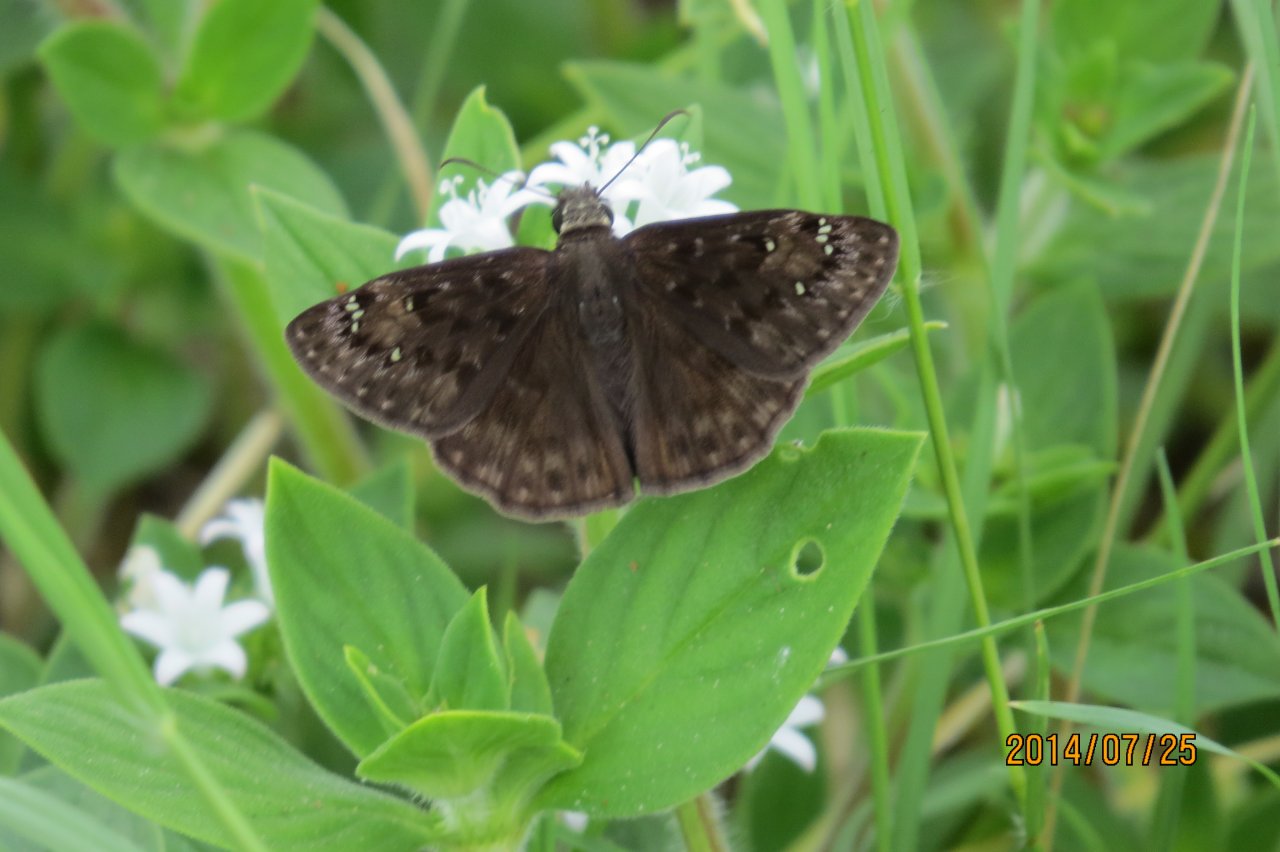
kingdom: Animalia
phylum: Arthropoda
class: Insecta
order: Lepidoptera
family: Hesperiidae
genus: Gesta
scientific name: Gesta
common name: Horace's Duskywing
